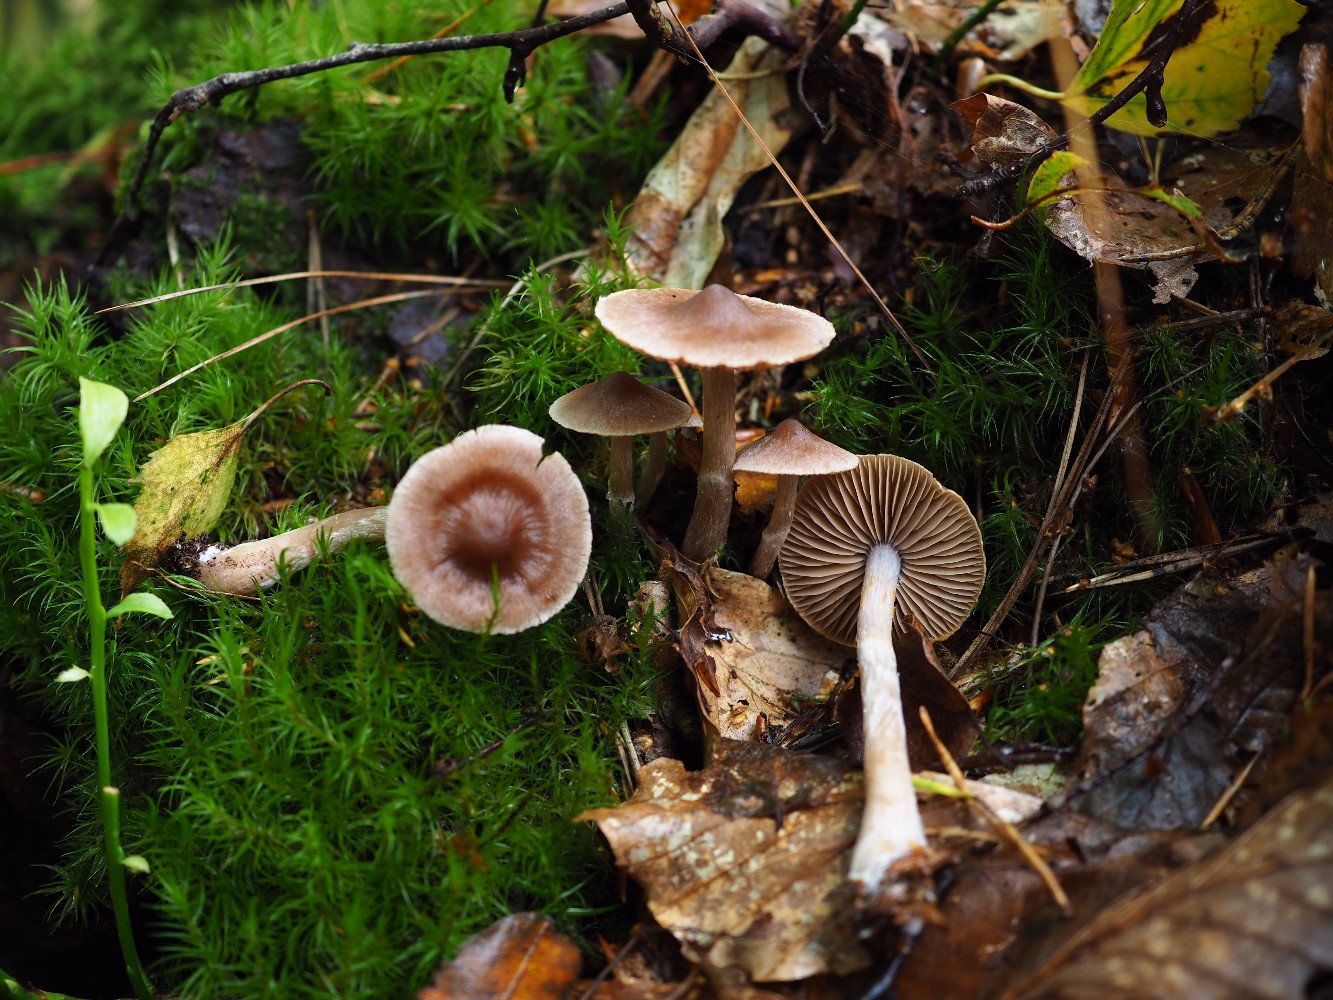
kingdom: Fungi
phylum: Basidiomycota
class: Agaricomycetes
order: Agaricales
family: Cortinariaceae
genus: Cortinarius
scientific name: Cortinarius
